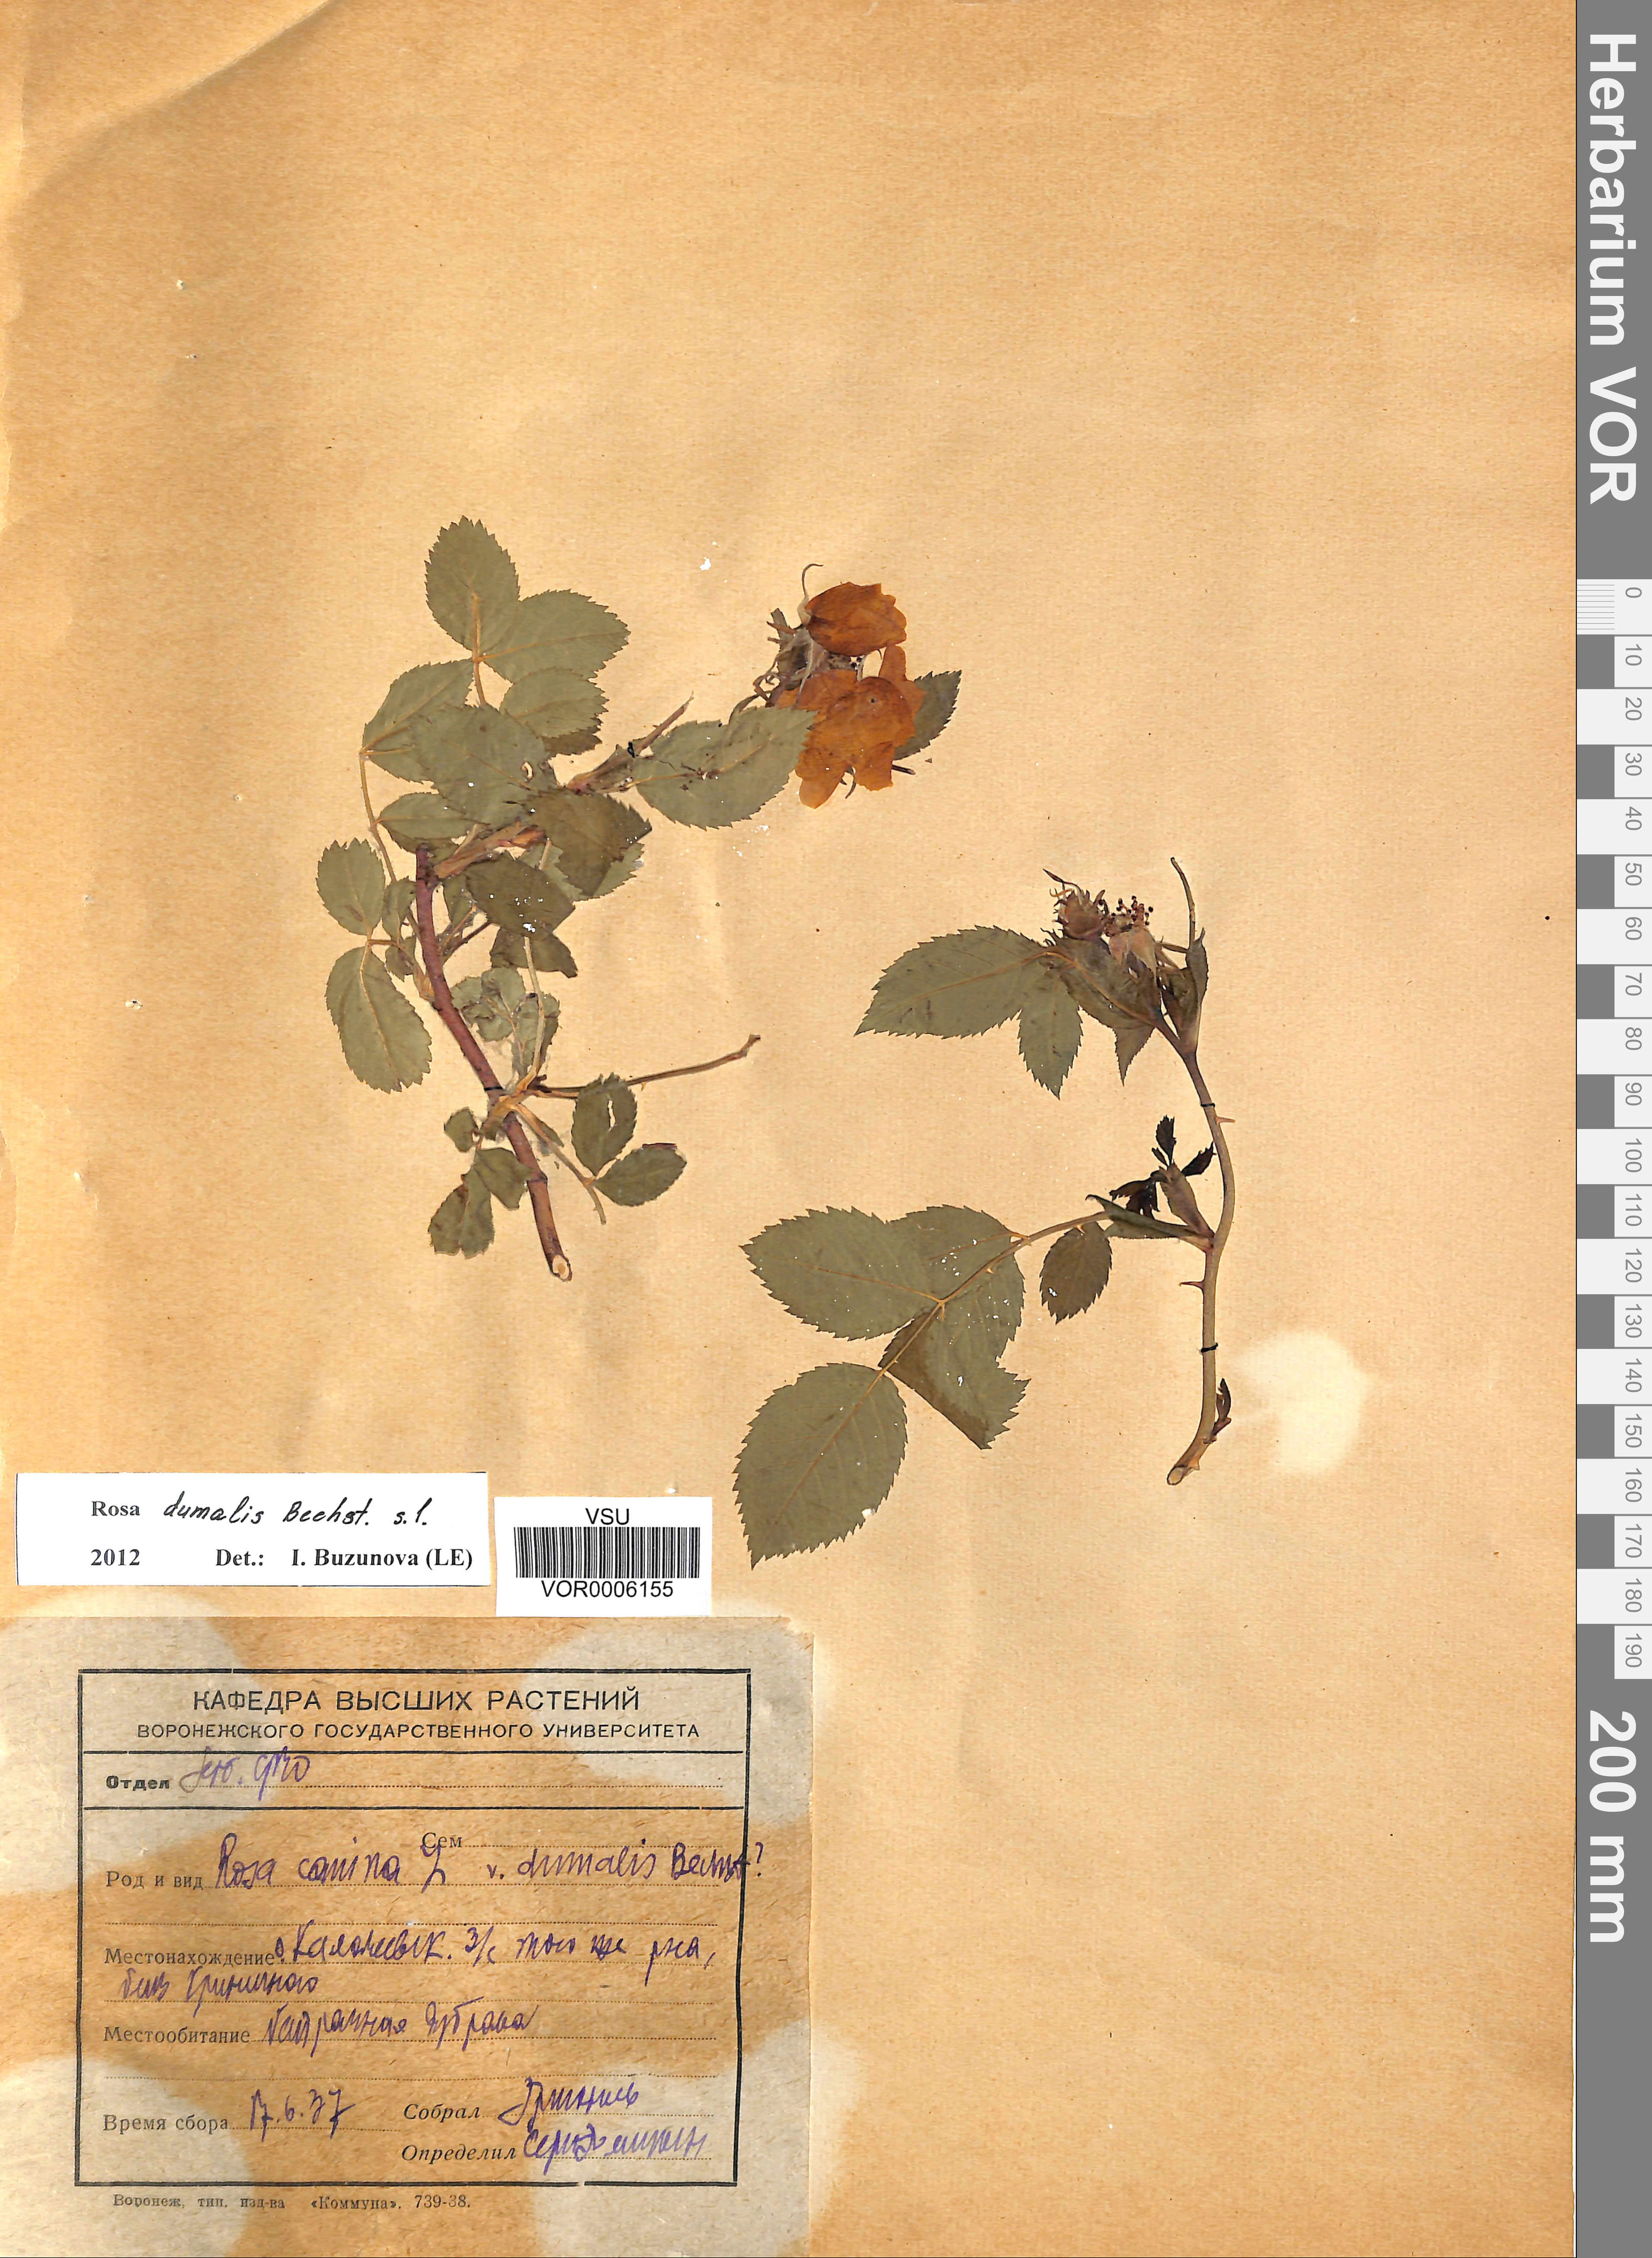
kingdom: Plantae
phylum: Tracheophyta
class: Magnoliopsida
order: Rosales
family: Rosaceae
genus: Rosa
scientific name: Rosa dumalis
